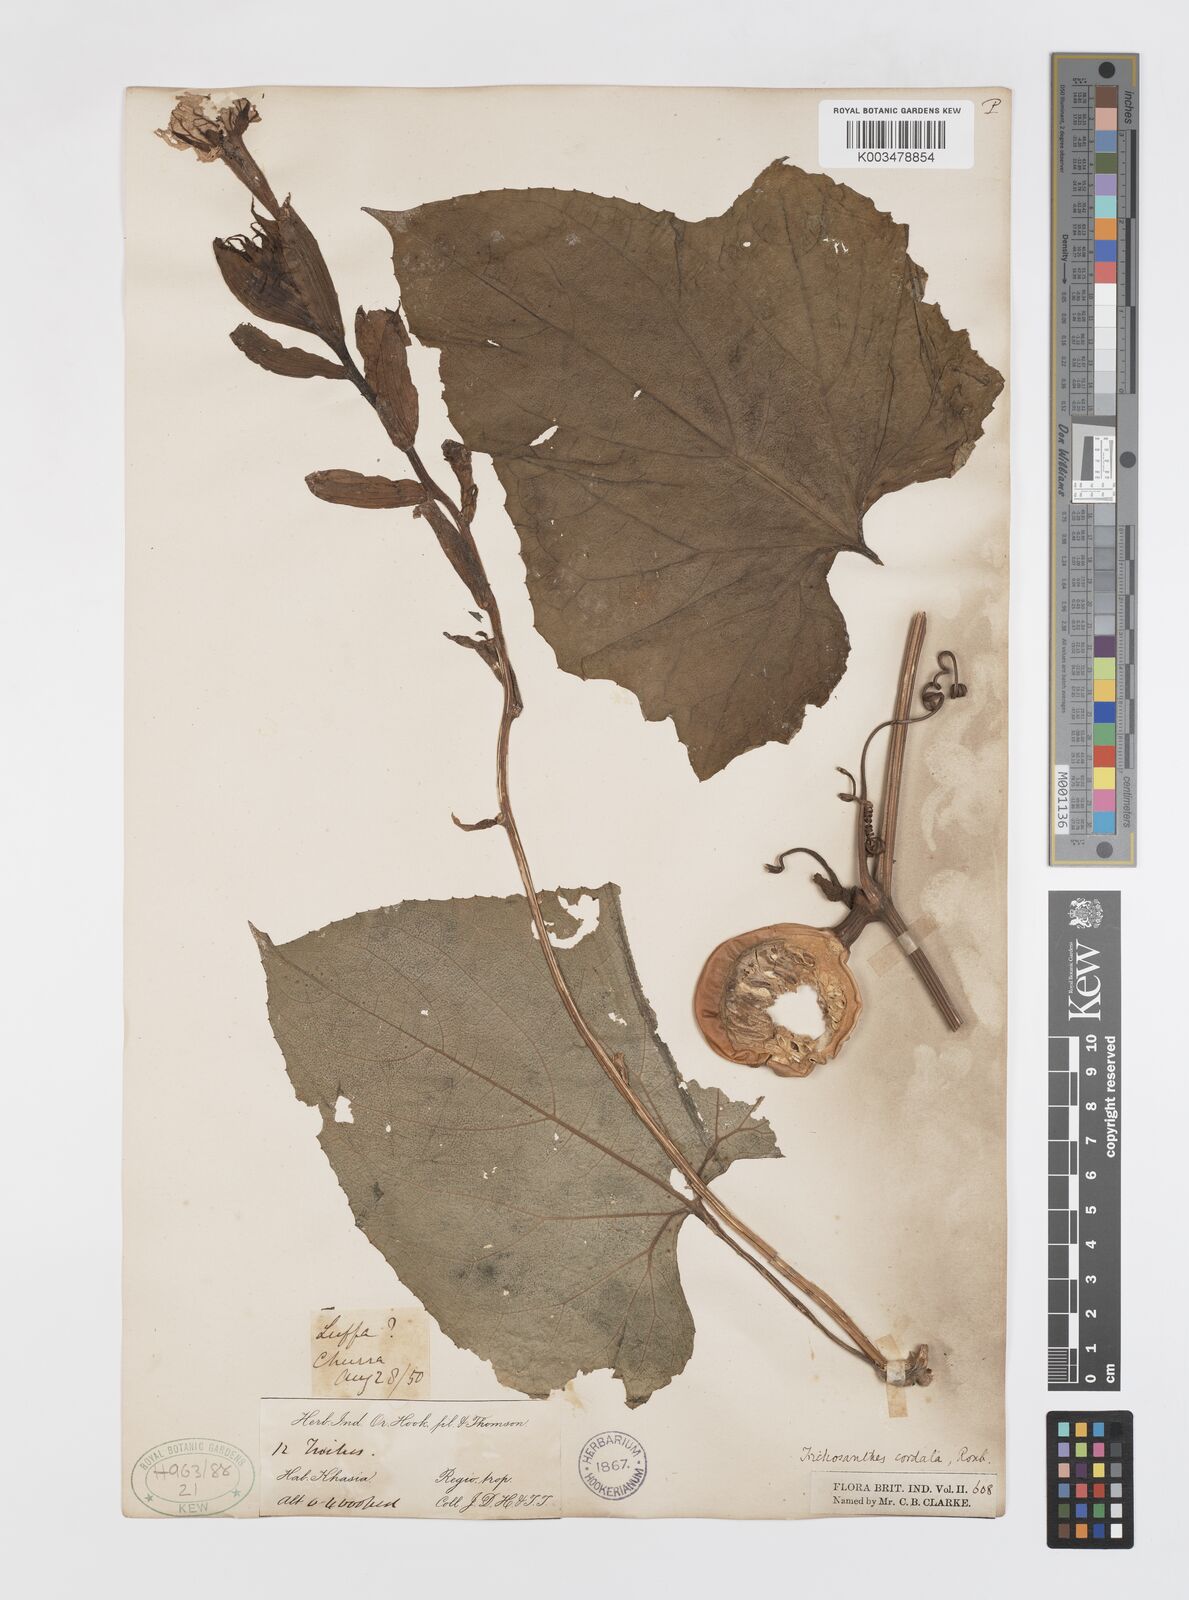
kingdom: Plantae
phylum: Tracheophyta
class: Magnoliopsida
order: Cucurbitales
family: Cucurbitaceae
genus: Trichosanthes
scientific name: Trichosanthes cordata
